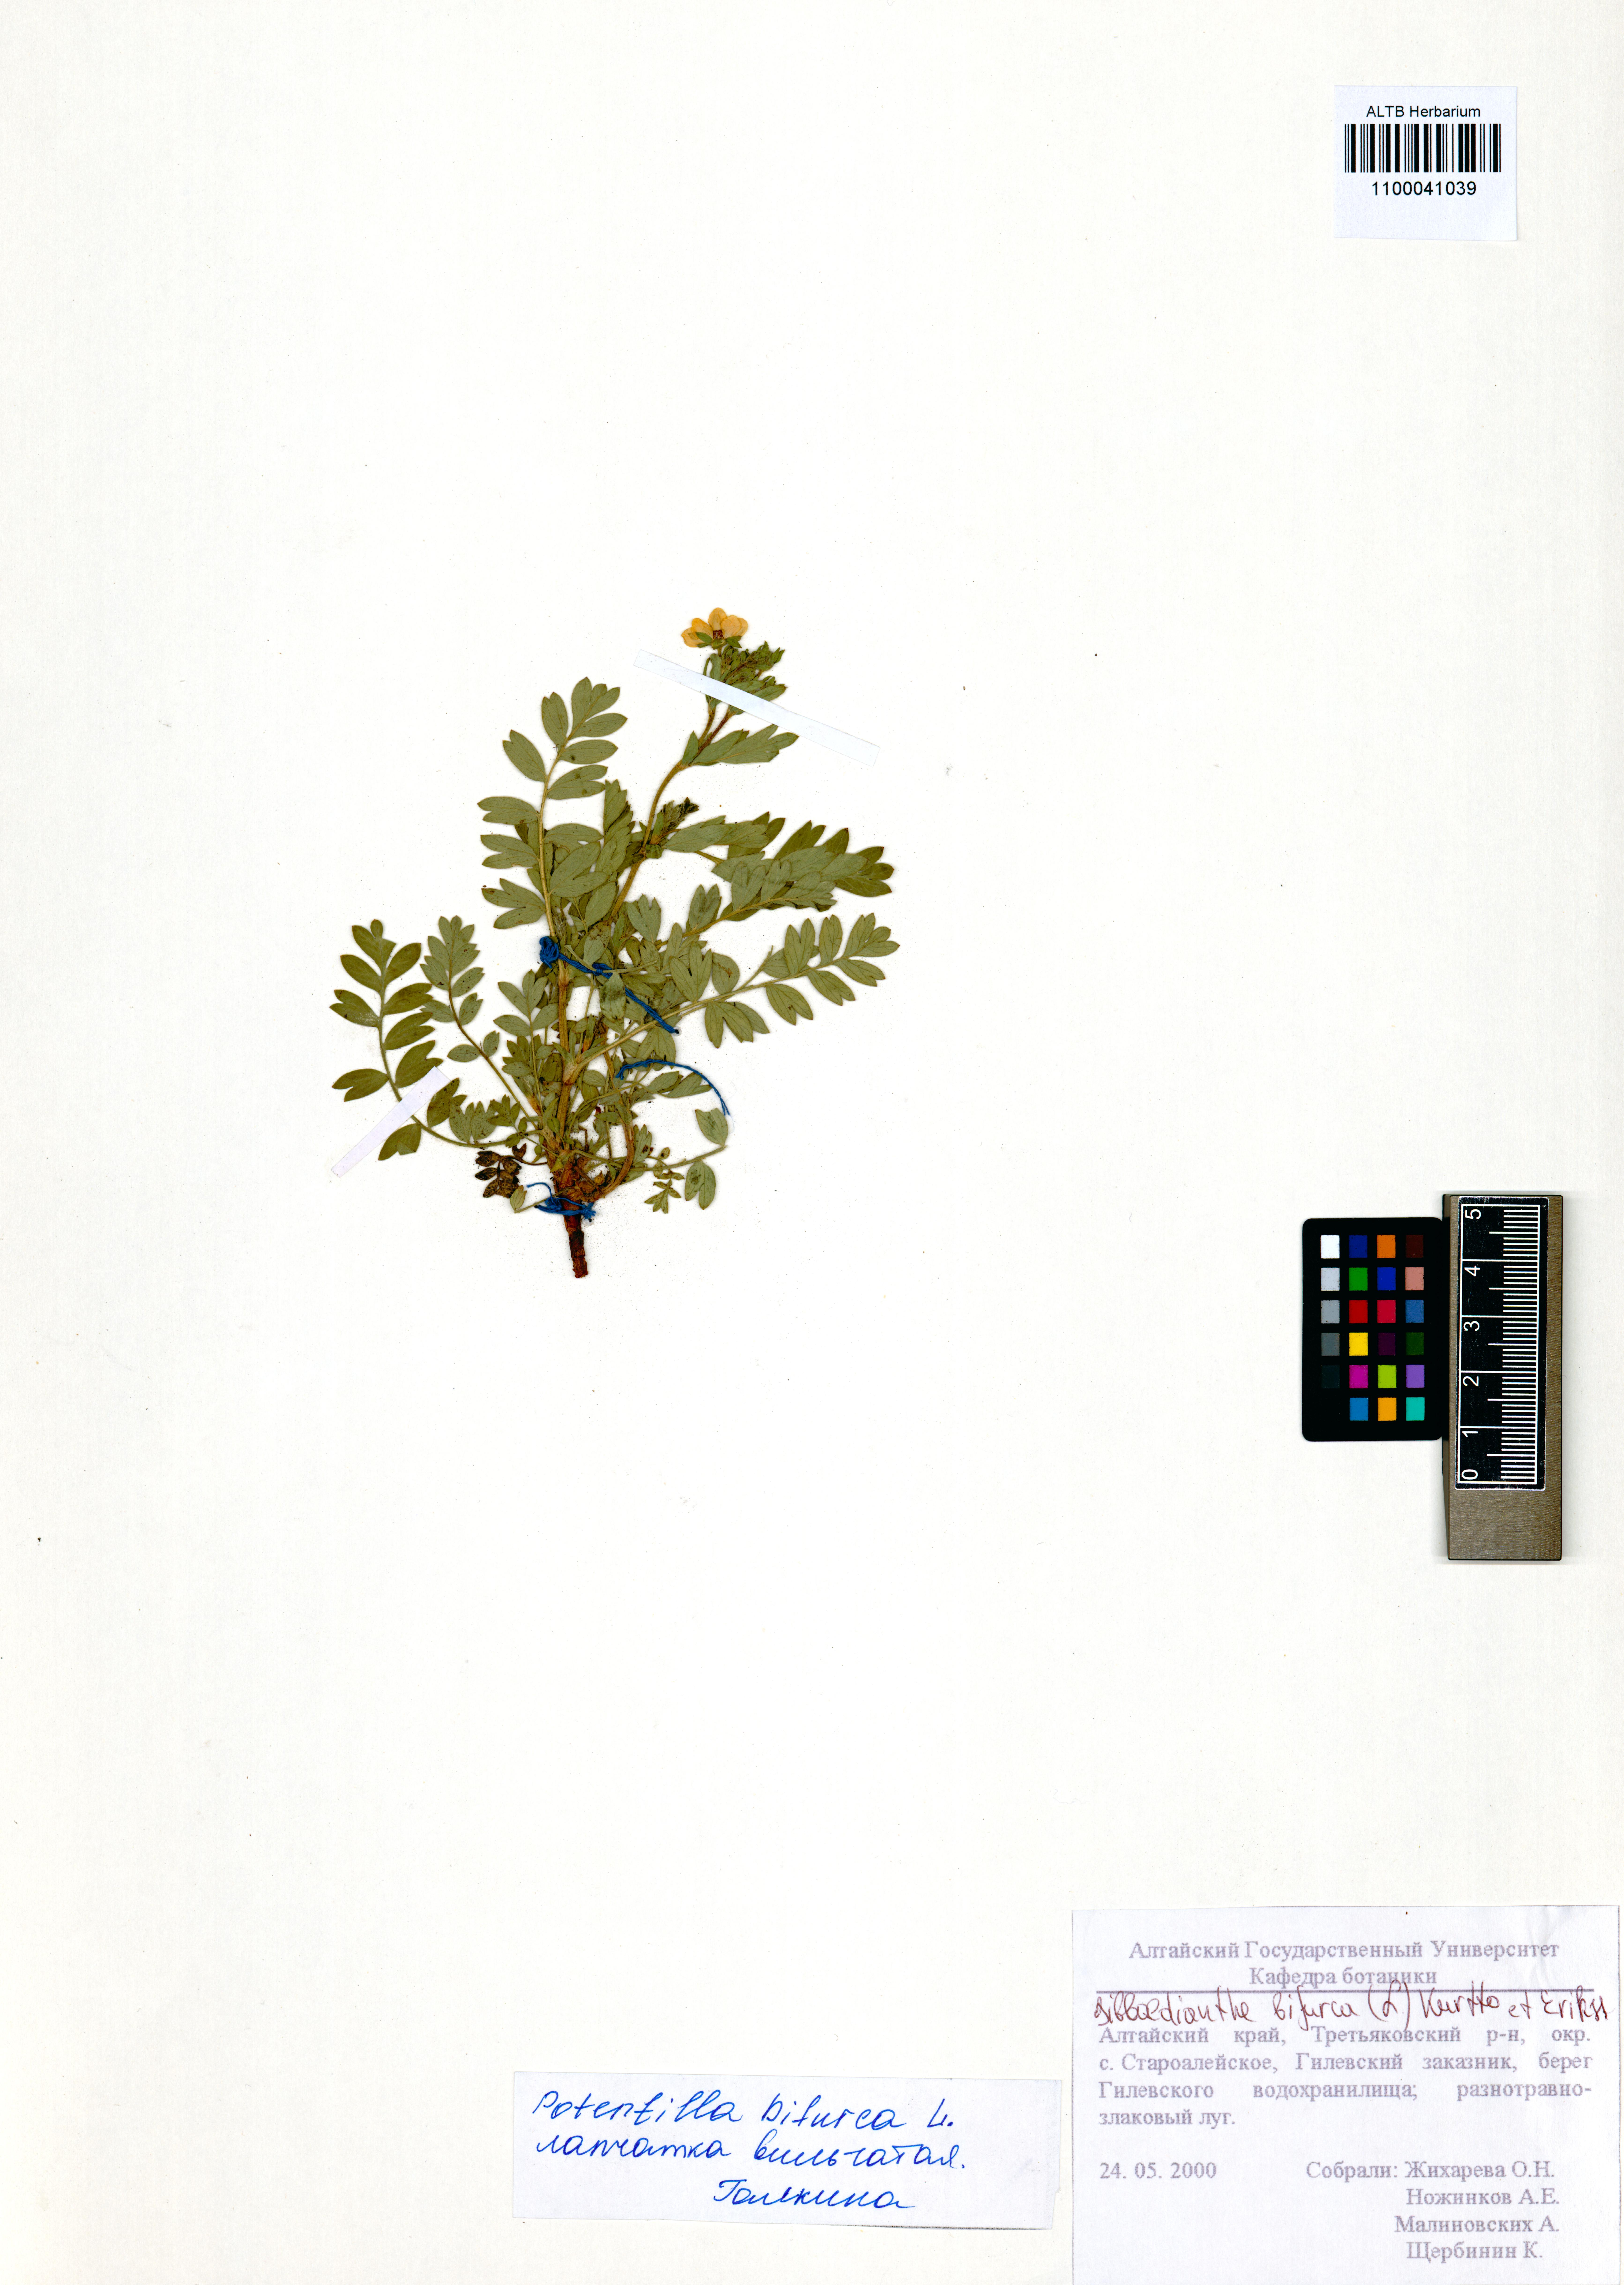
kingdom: Plantae
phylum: Tracheophyta
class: Magnoliopsida
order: Rosales
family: Rosaceae
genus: Sibbaldianthe
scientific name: Sibbaldianthe bifurca
